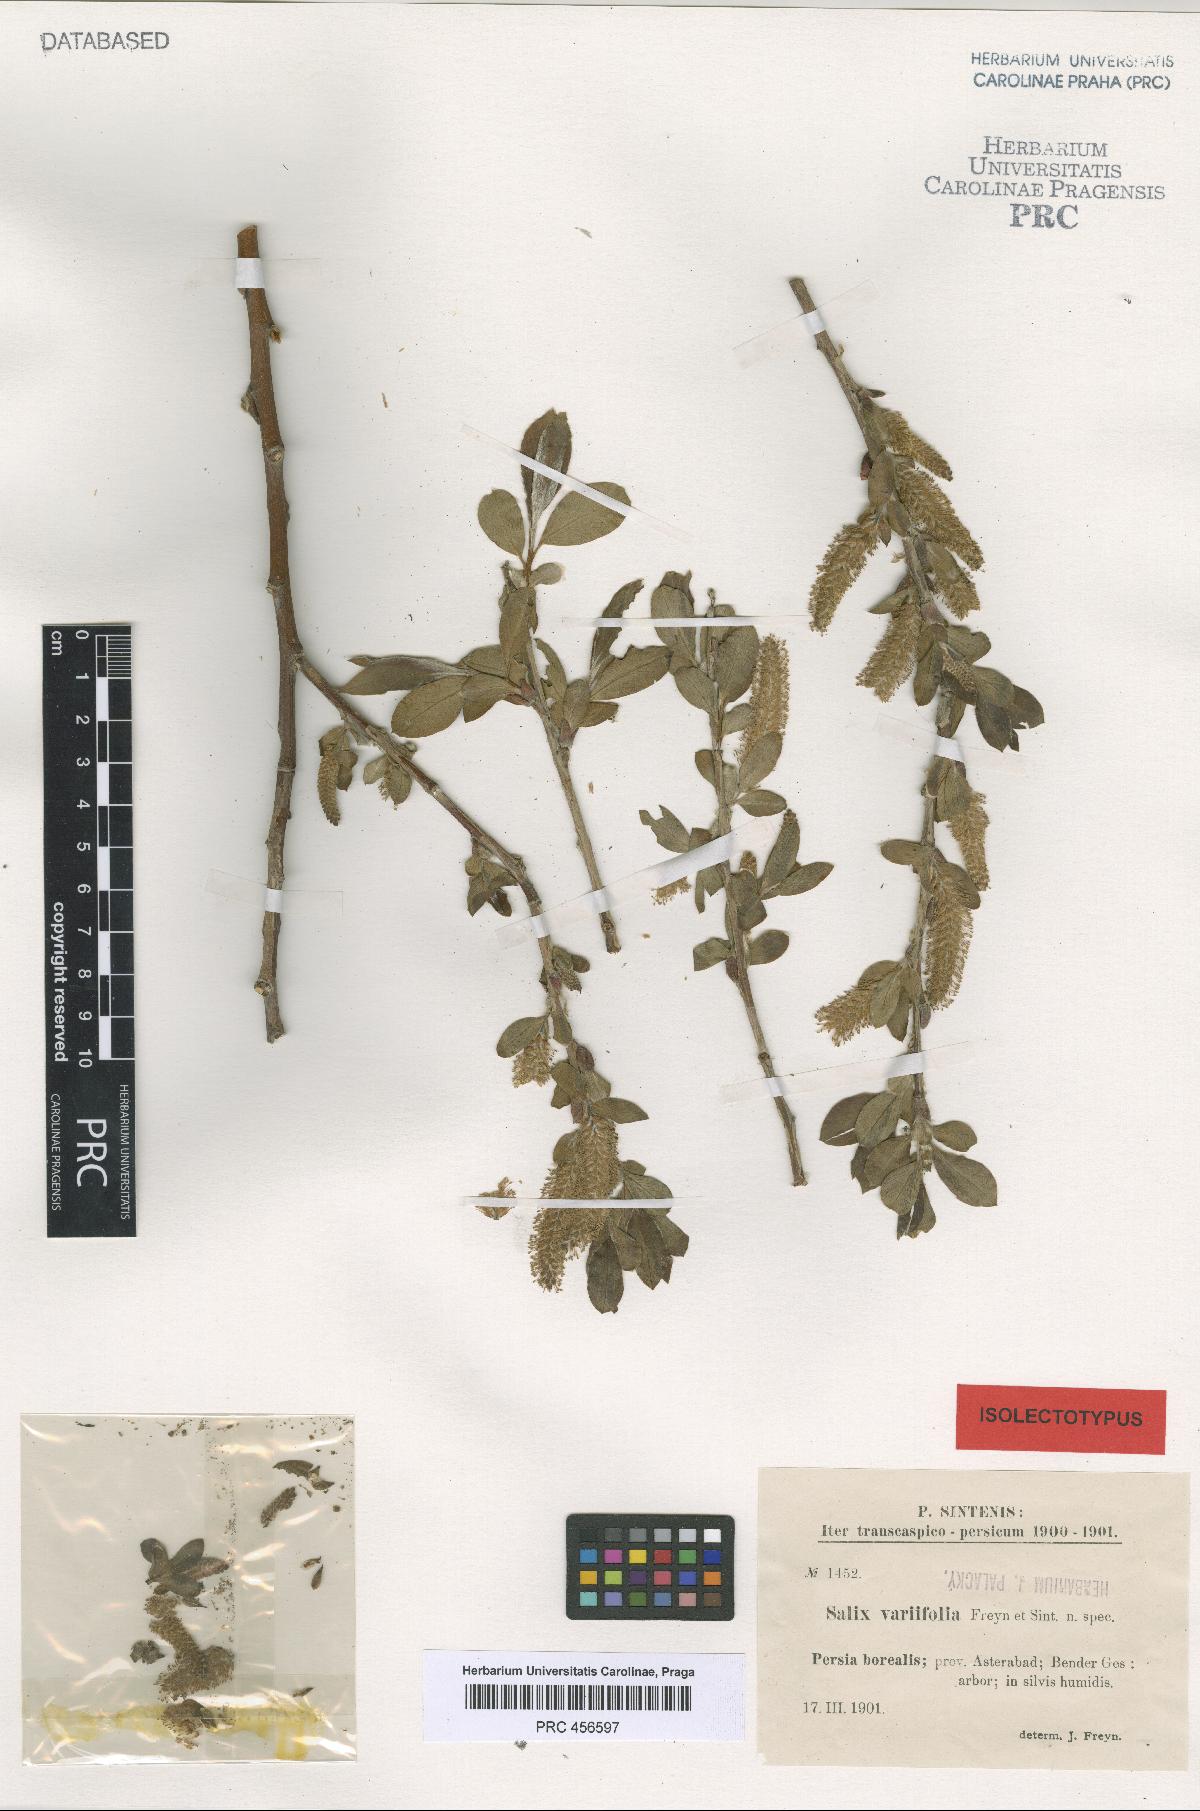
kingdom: Plantae
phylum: Tracheophyta
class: Magnoliopsida
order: Malpighiales
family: Salicaceae
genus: Salix
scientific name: Salix excelsa
